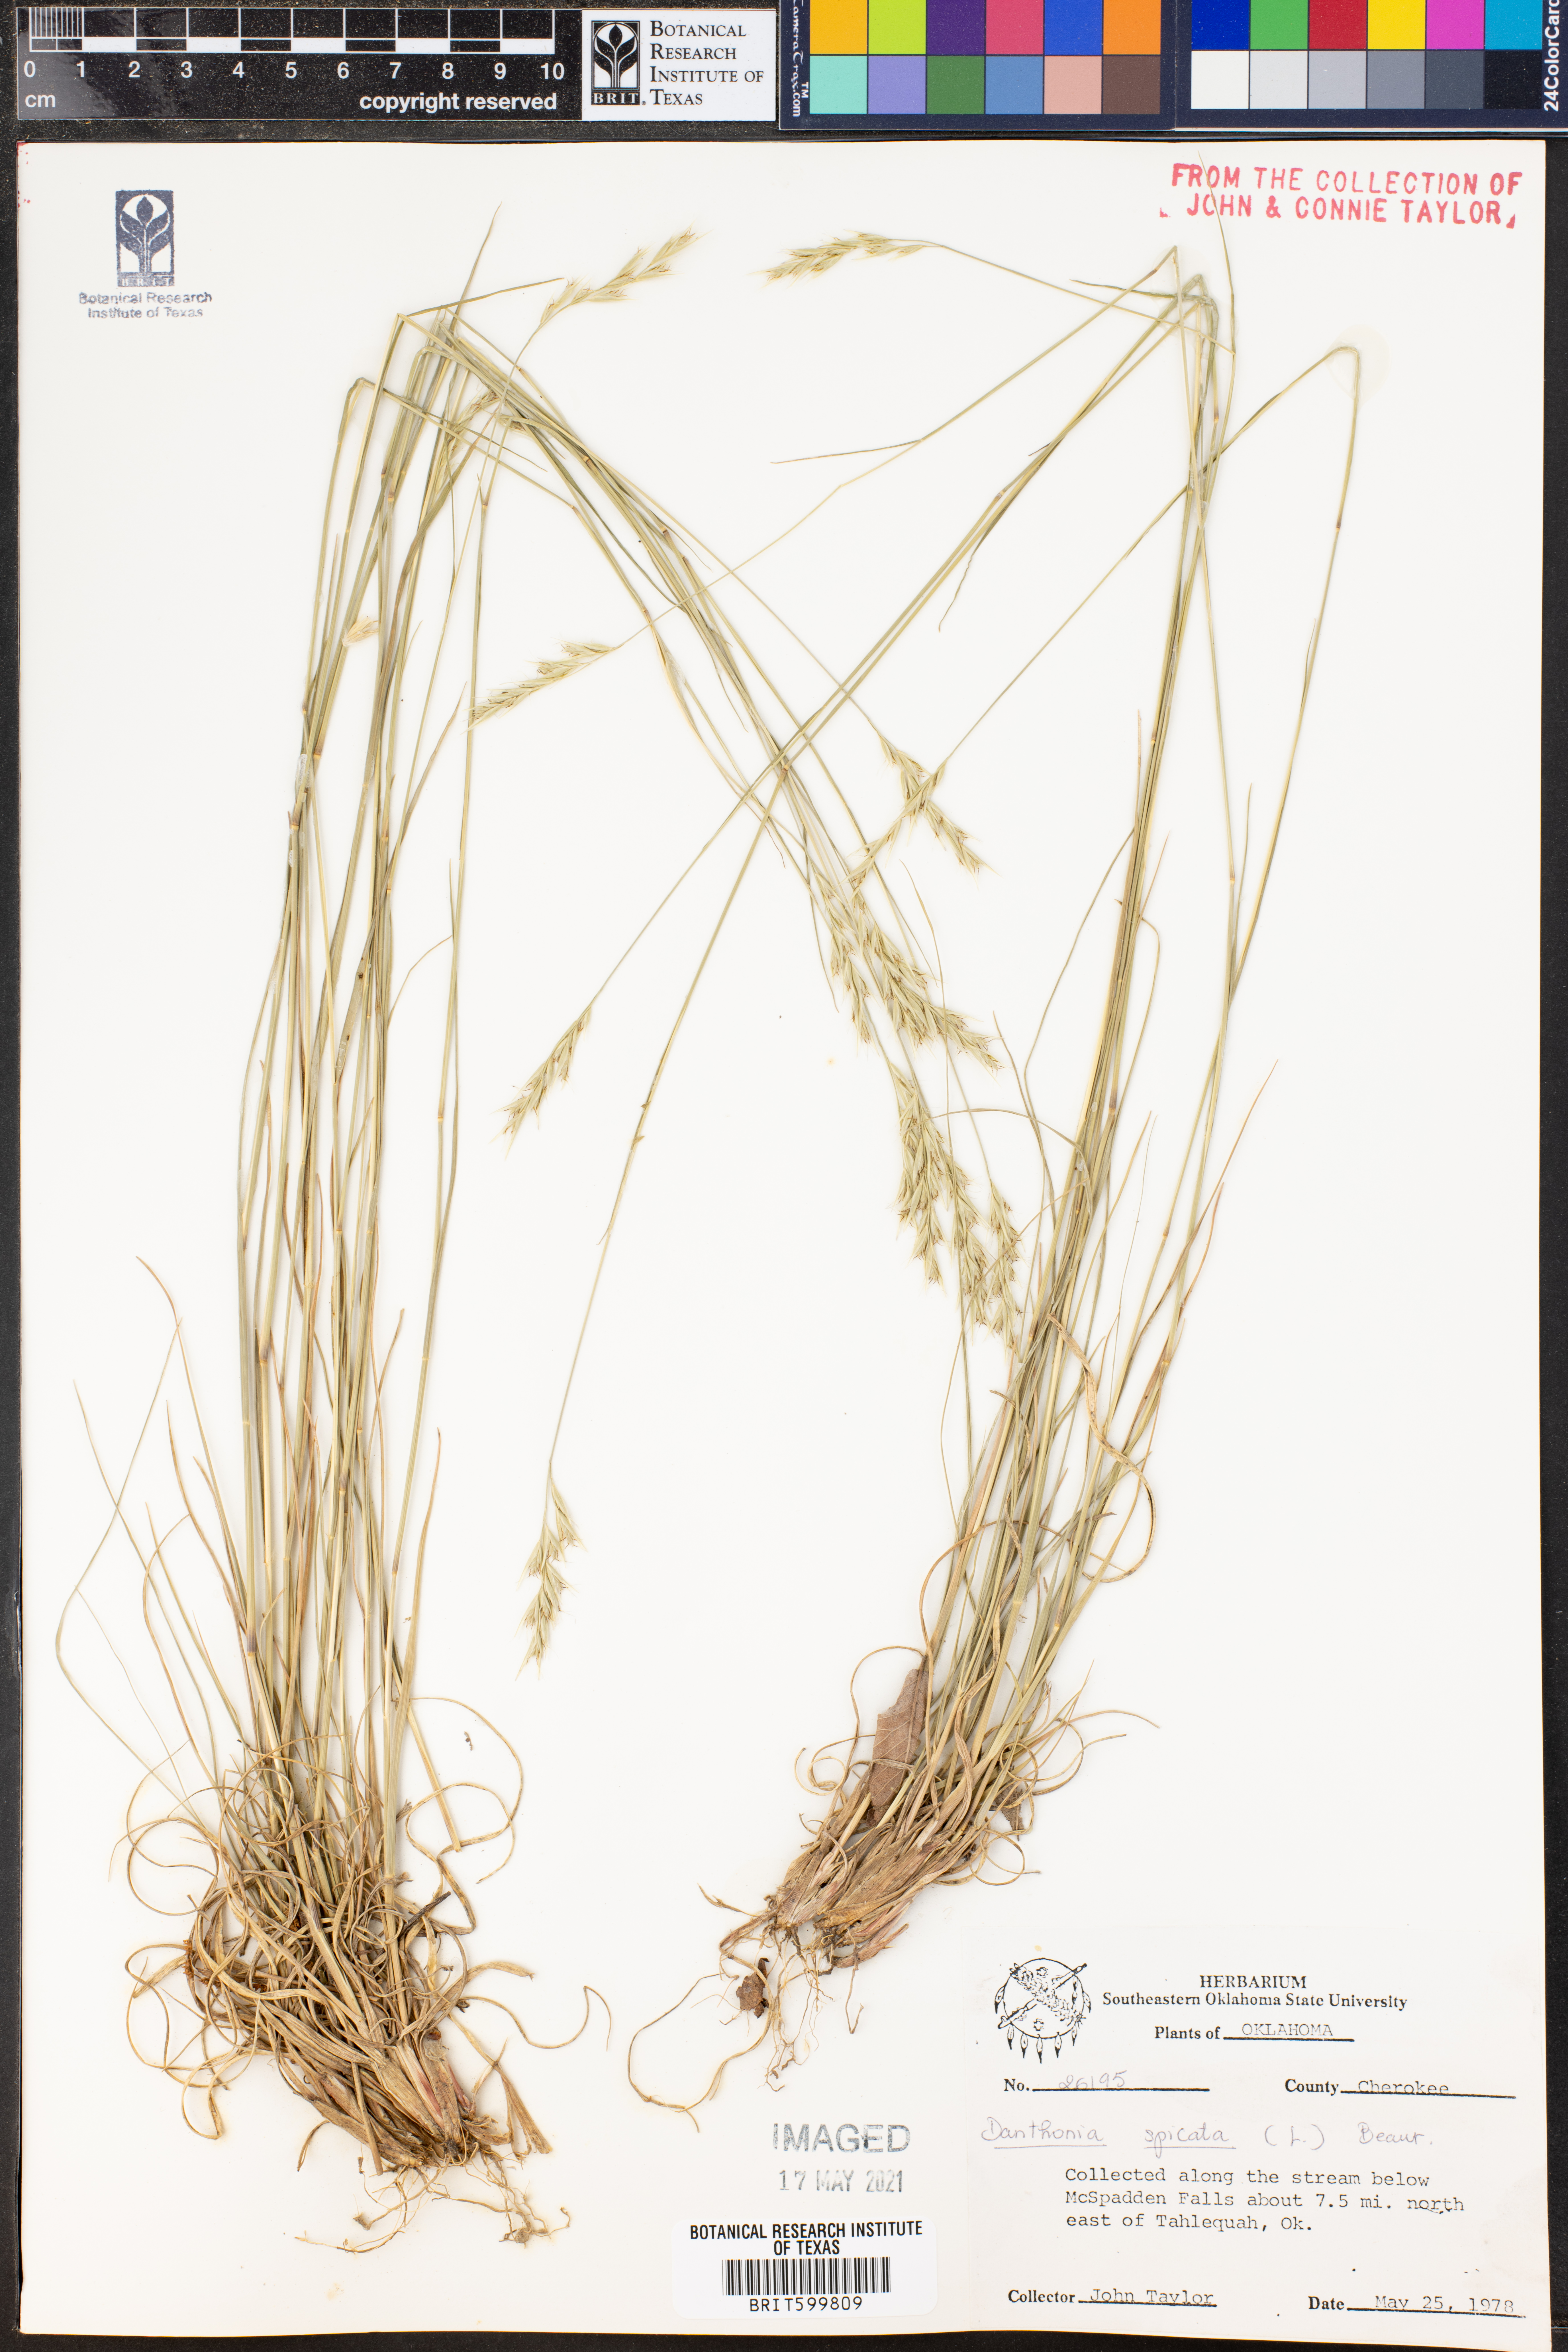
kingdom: Plantae
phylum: Tracheophyta
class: Liliopsida
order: Poales
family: Poaceae
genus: Danthonia
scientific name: Danthonia spicata
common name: Common wild oatgrass
